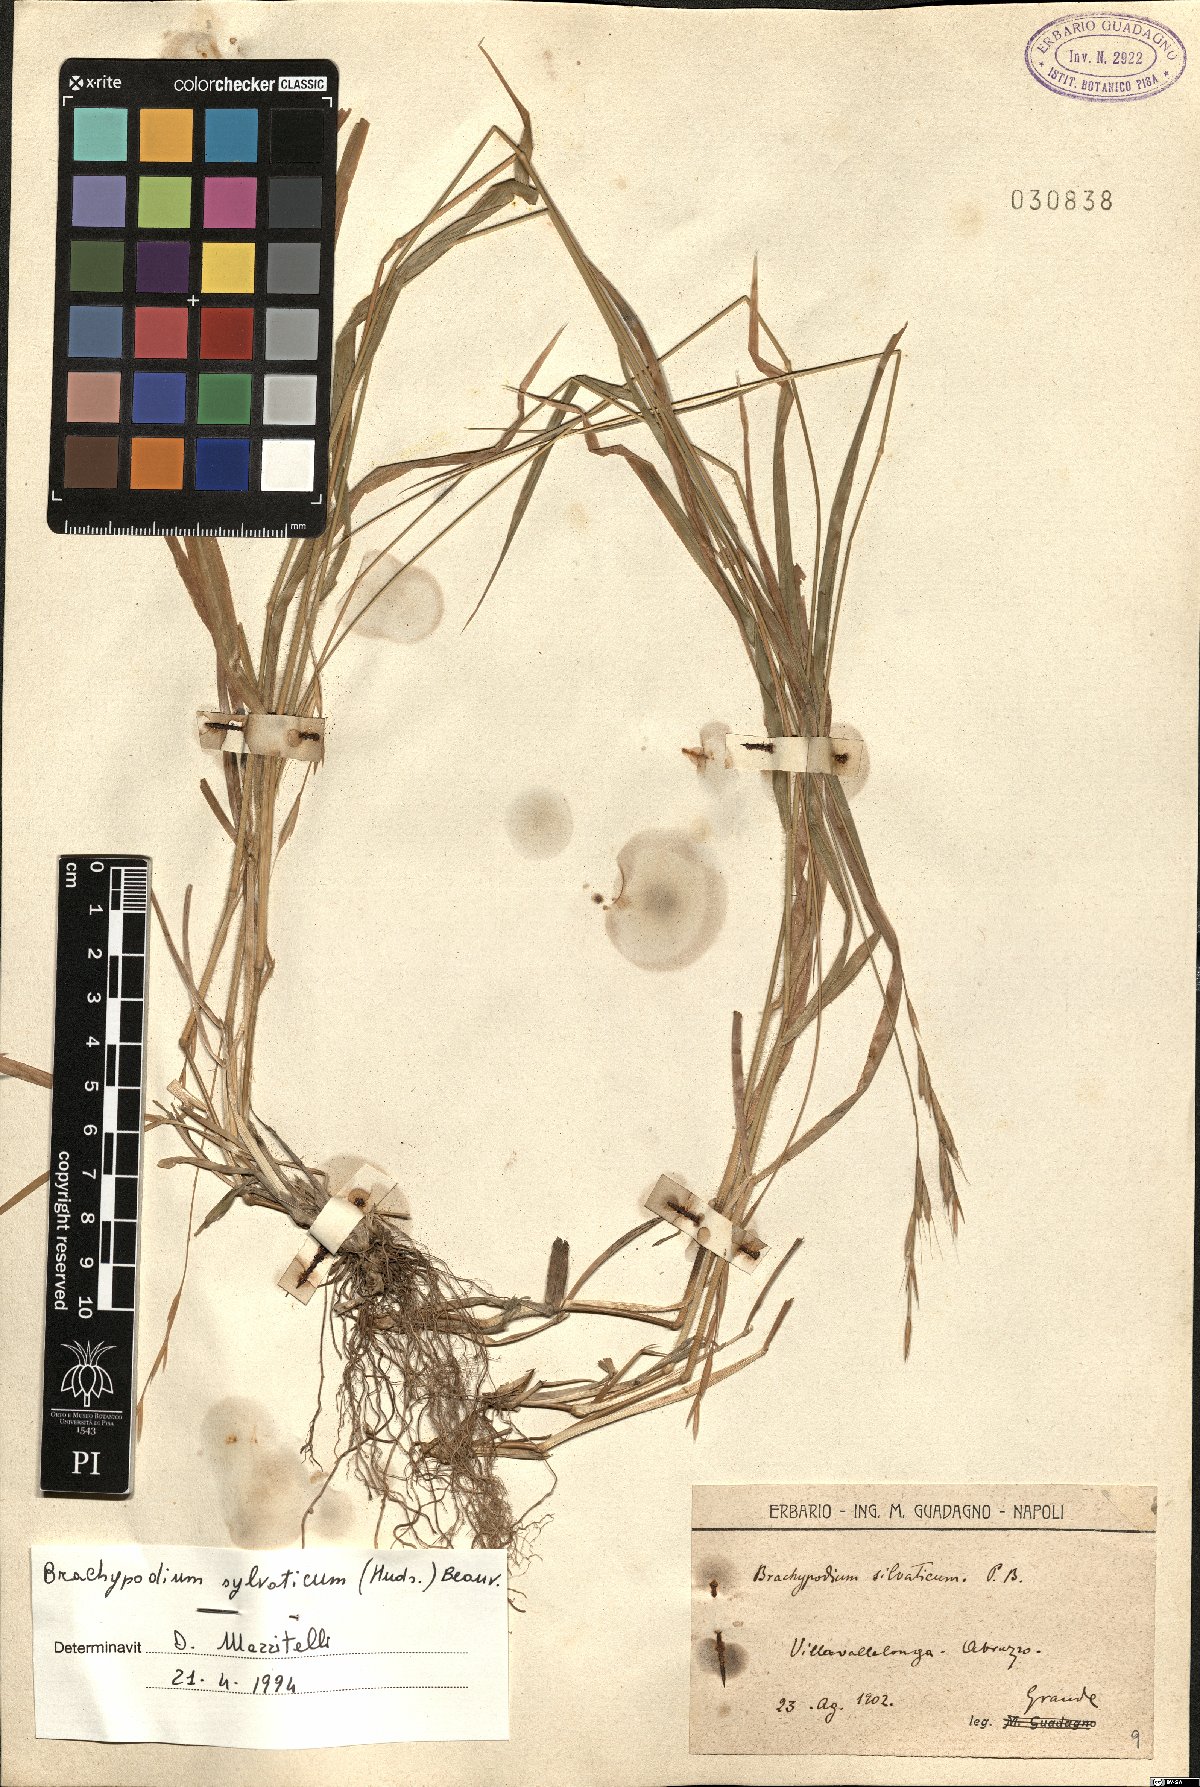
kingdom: Plantae
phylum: Tracheophyta
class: Liliopsida
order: Poales
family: Poaceae
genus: Brachypodium
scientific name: Brachypodium sylvaticum
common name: False-brome
